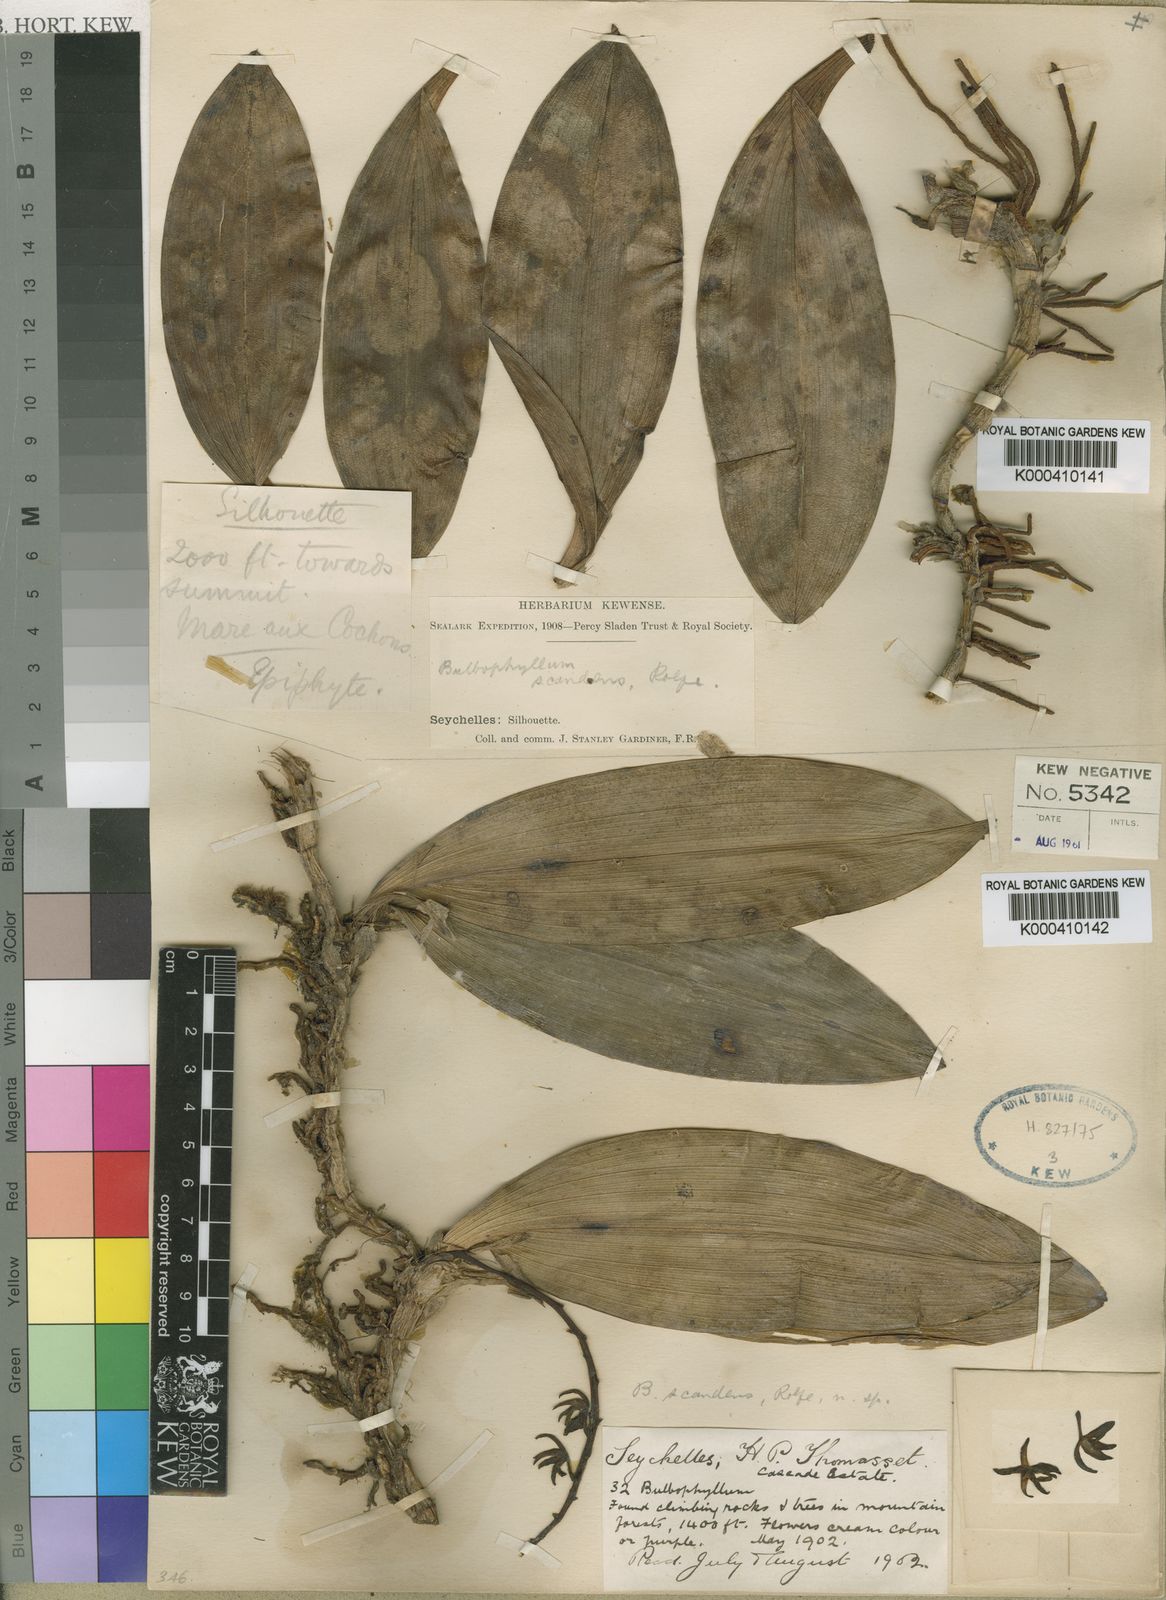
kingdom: Plantae
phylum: Tracheophyta
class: Liliopsida
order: Asparagales
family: Orchidaceae
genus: Hederorkis
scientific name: Hederorkis seychellensis
